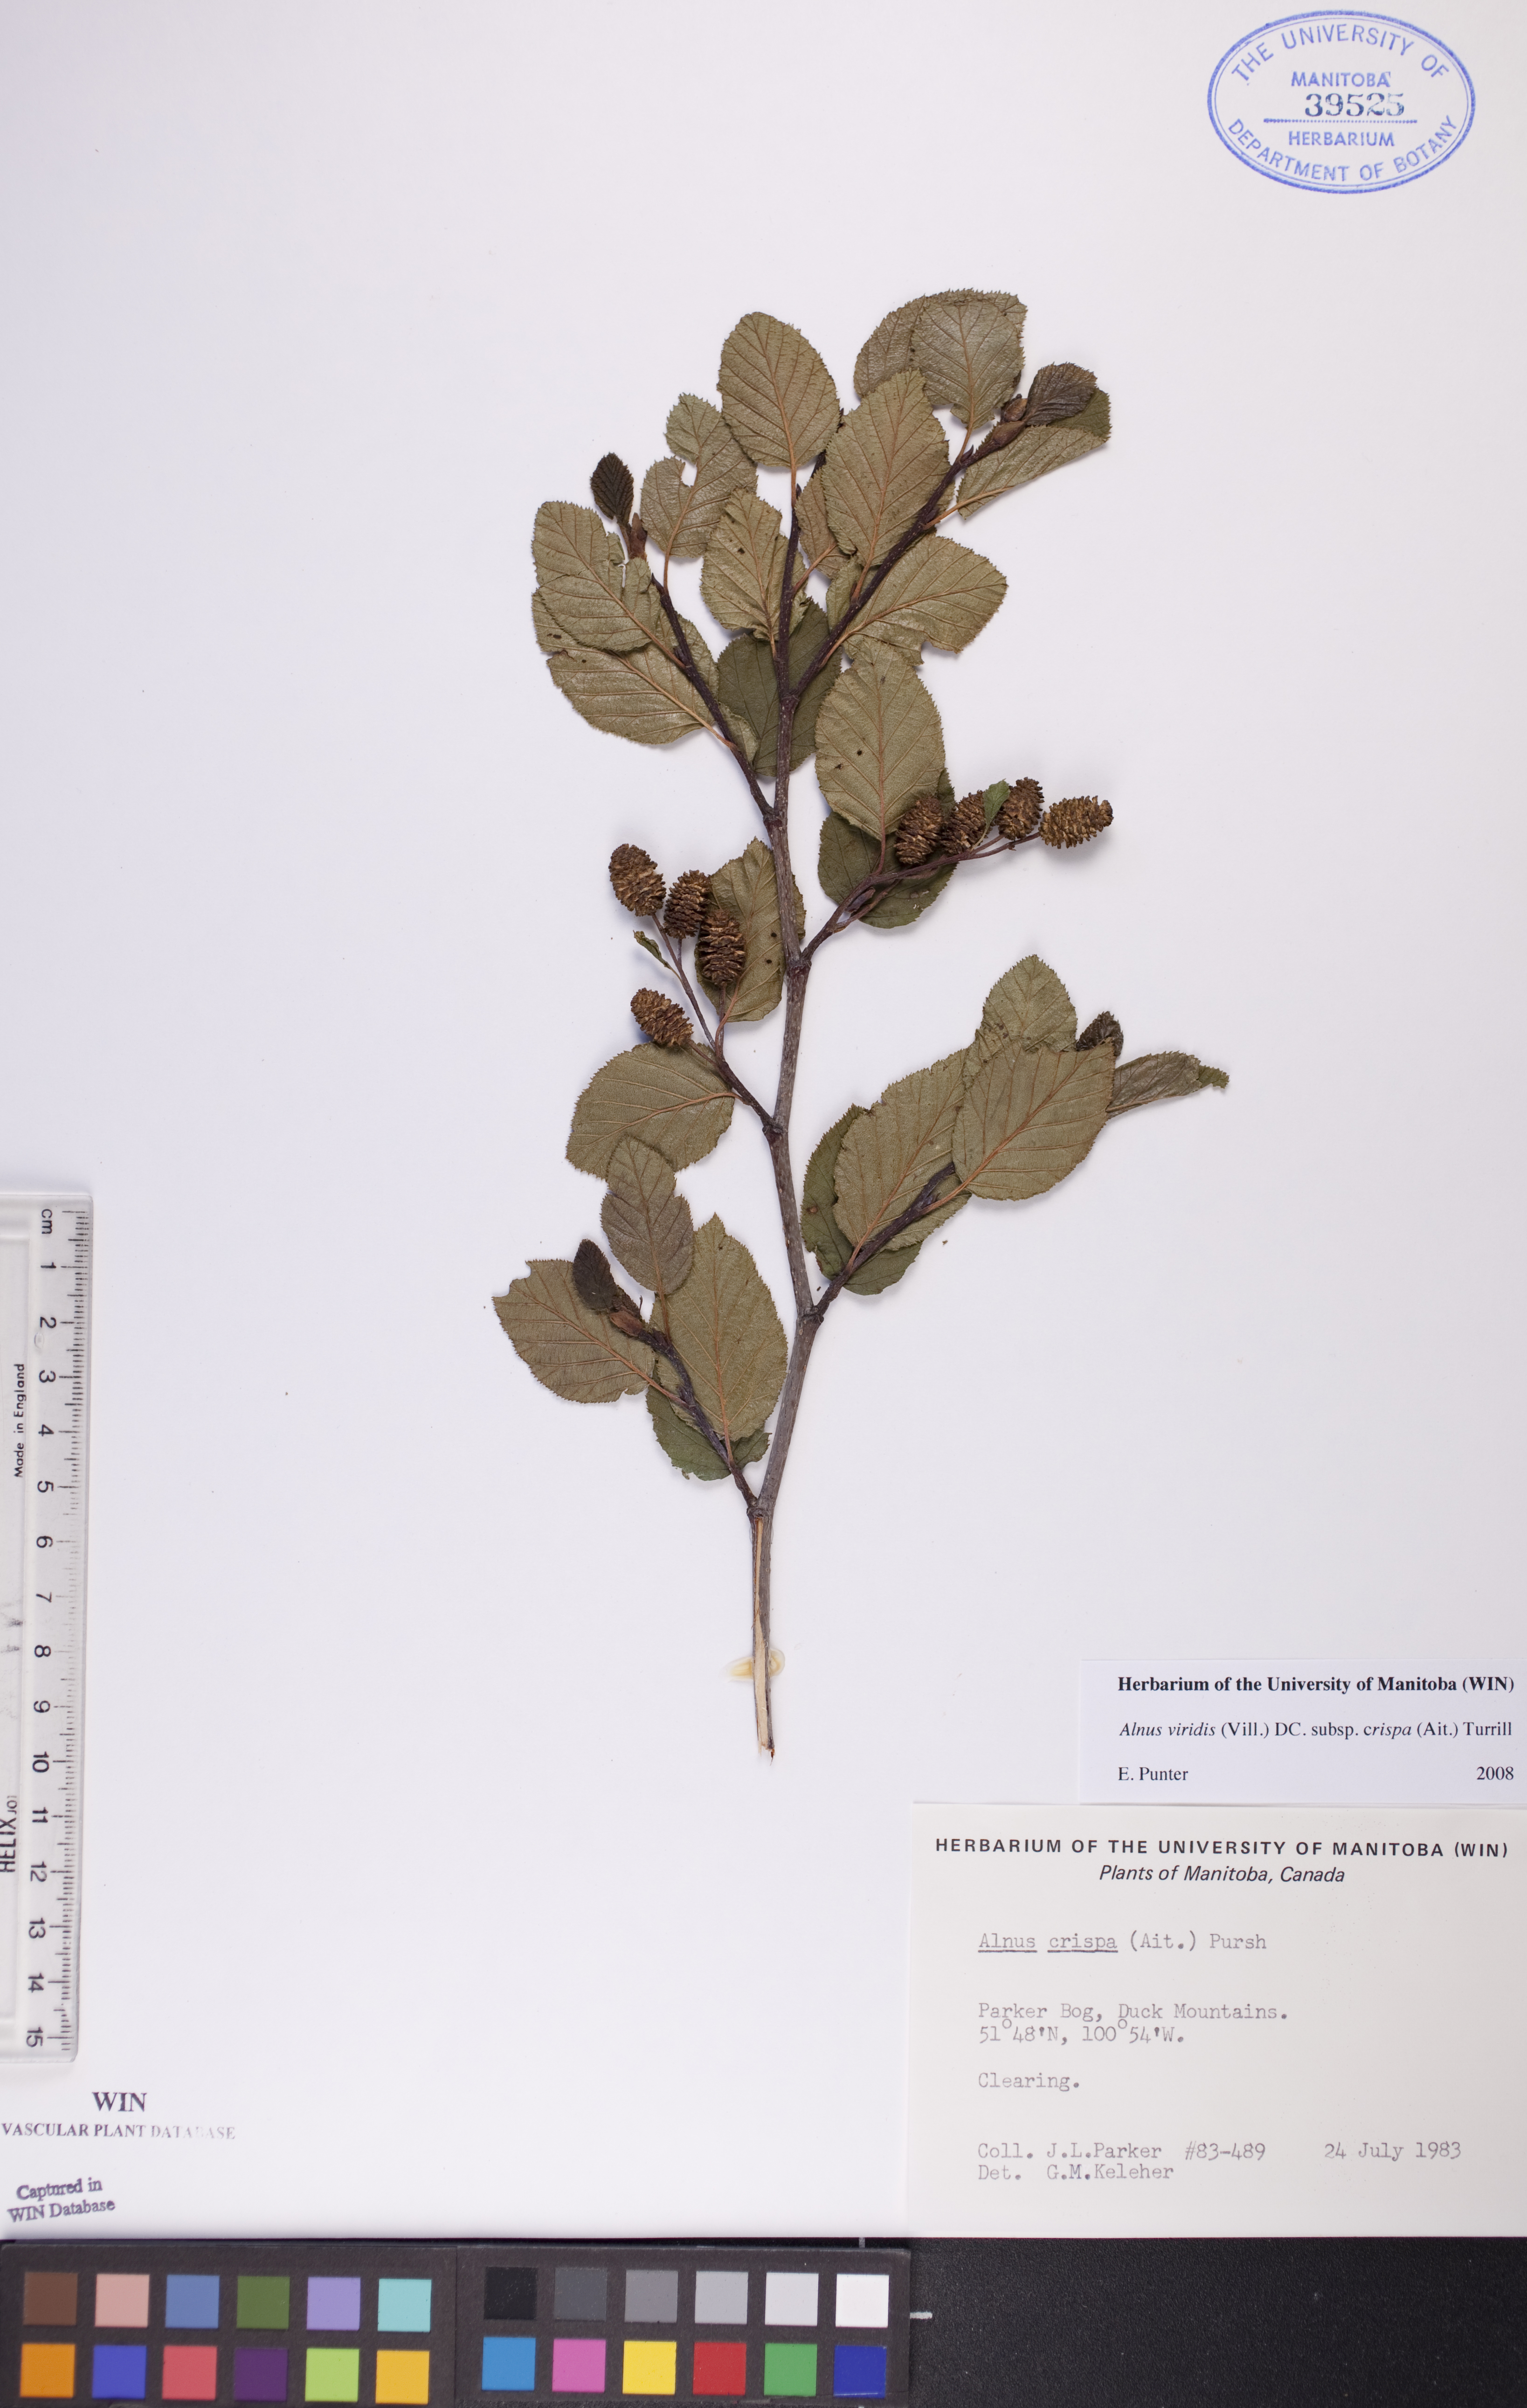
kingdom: Plantae
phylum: Tracheophyta
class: Magnoliopsida
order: Fagales
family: Betulaceae
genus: Alnus
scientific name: Alnus alnobetula
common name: Green alder
